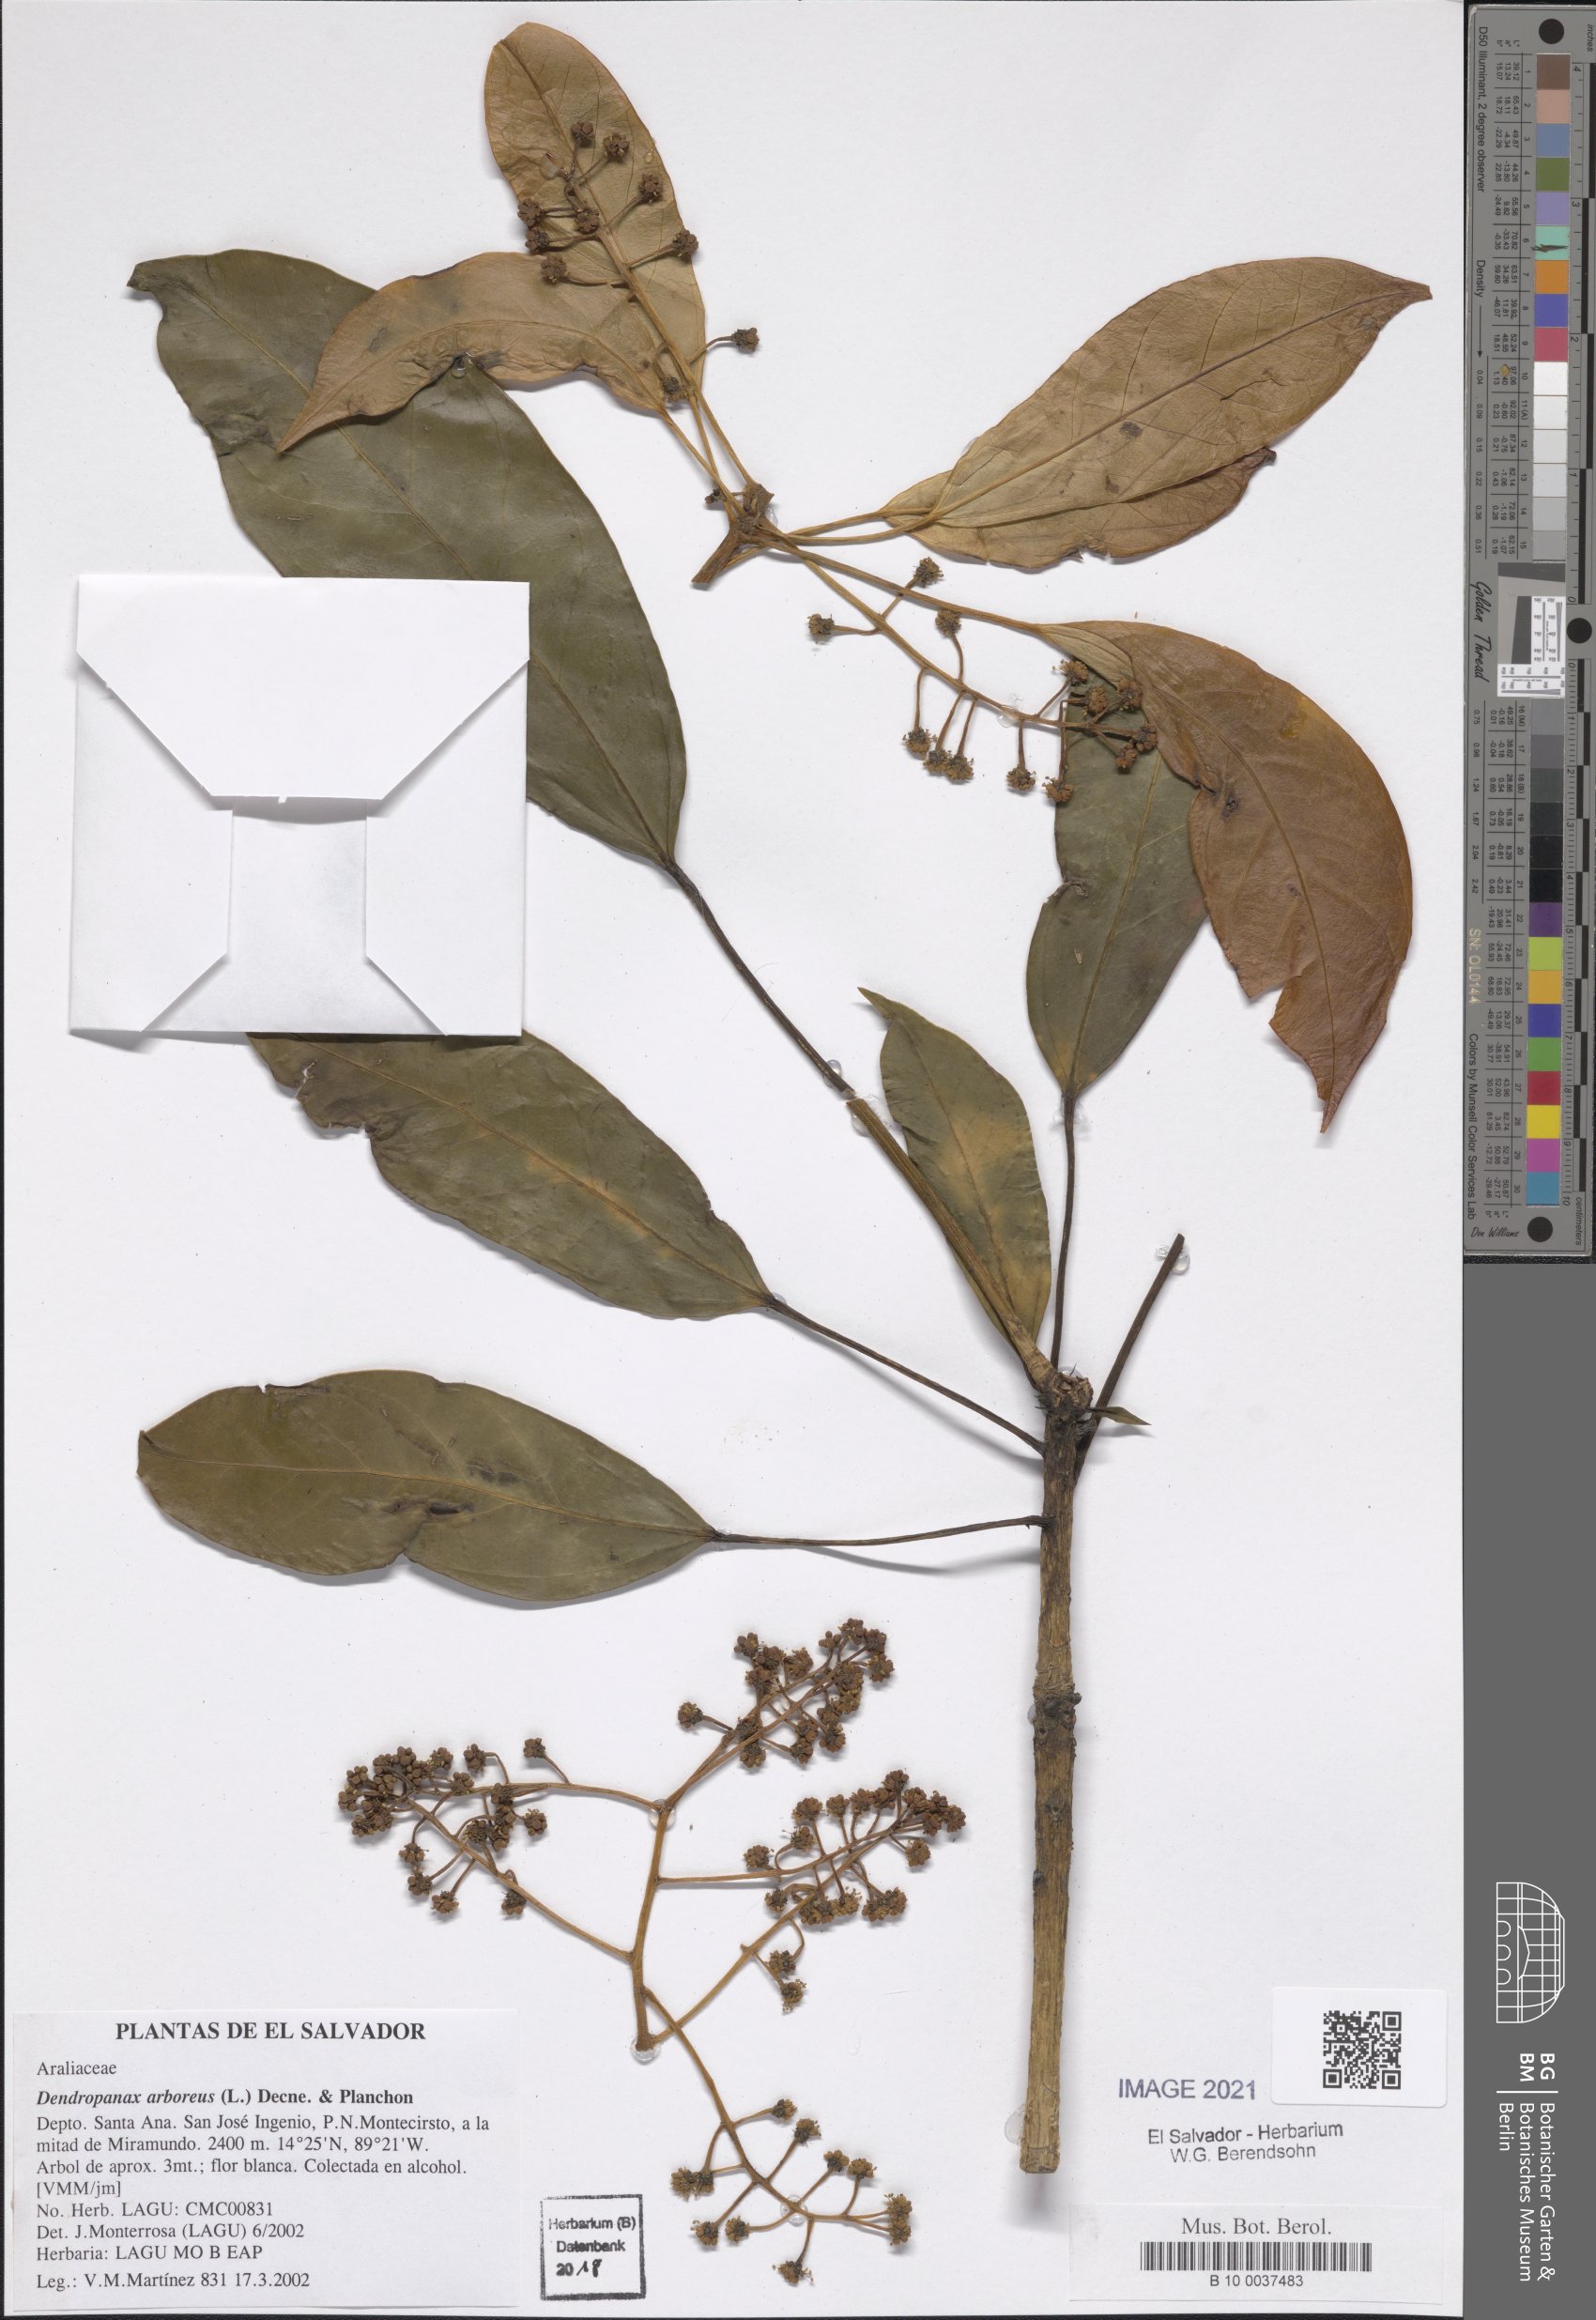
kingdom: Plantae
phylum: Tracheophyta
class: Magnoliopsida
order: Apiales
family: Araliaceae
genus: Oreopanax
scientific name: Oreopanax capitatus
